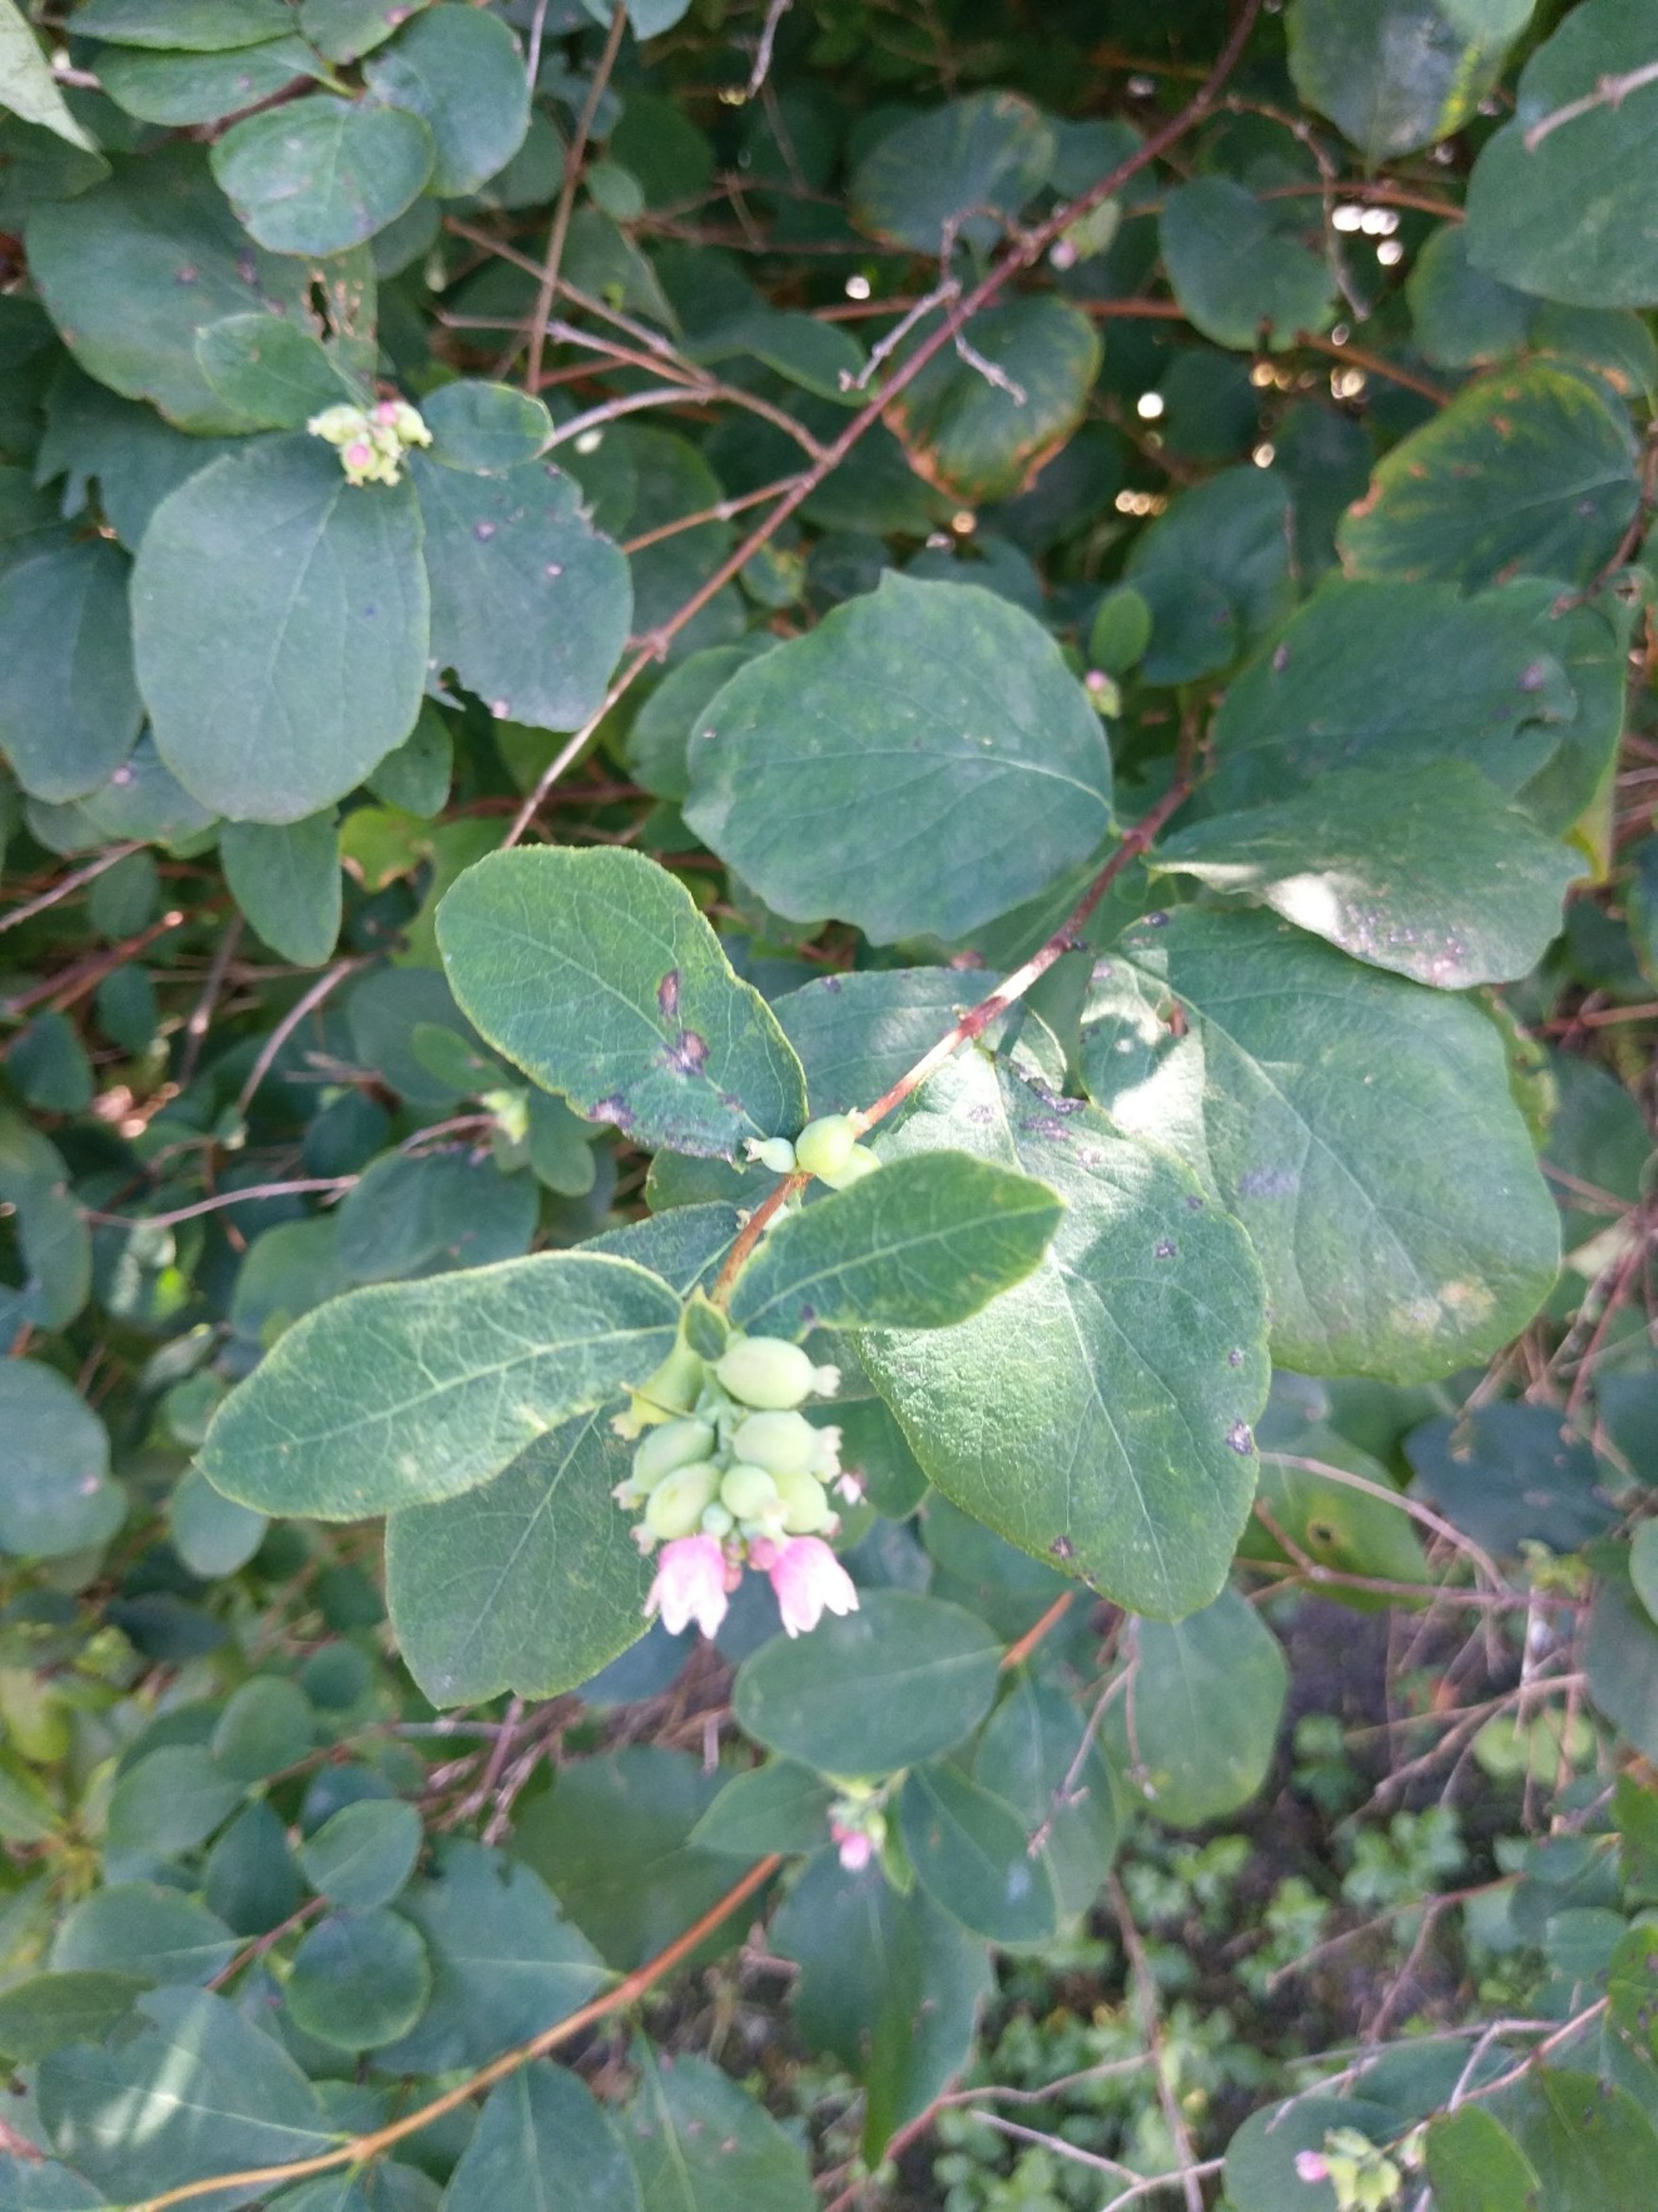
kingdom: Plantae
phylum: Tracheophyta
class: Magnoliopsida
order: Dipsacales
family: Caprifoliaceae
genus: Symphoricarpos
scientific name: Symphoricarpos albus
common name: Almindelig snebær
